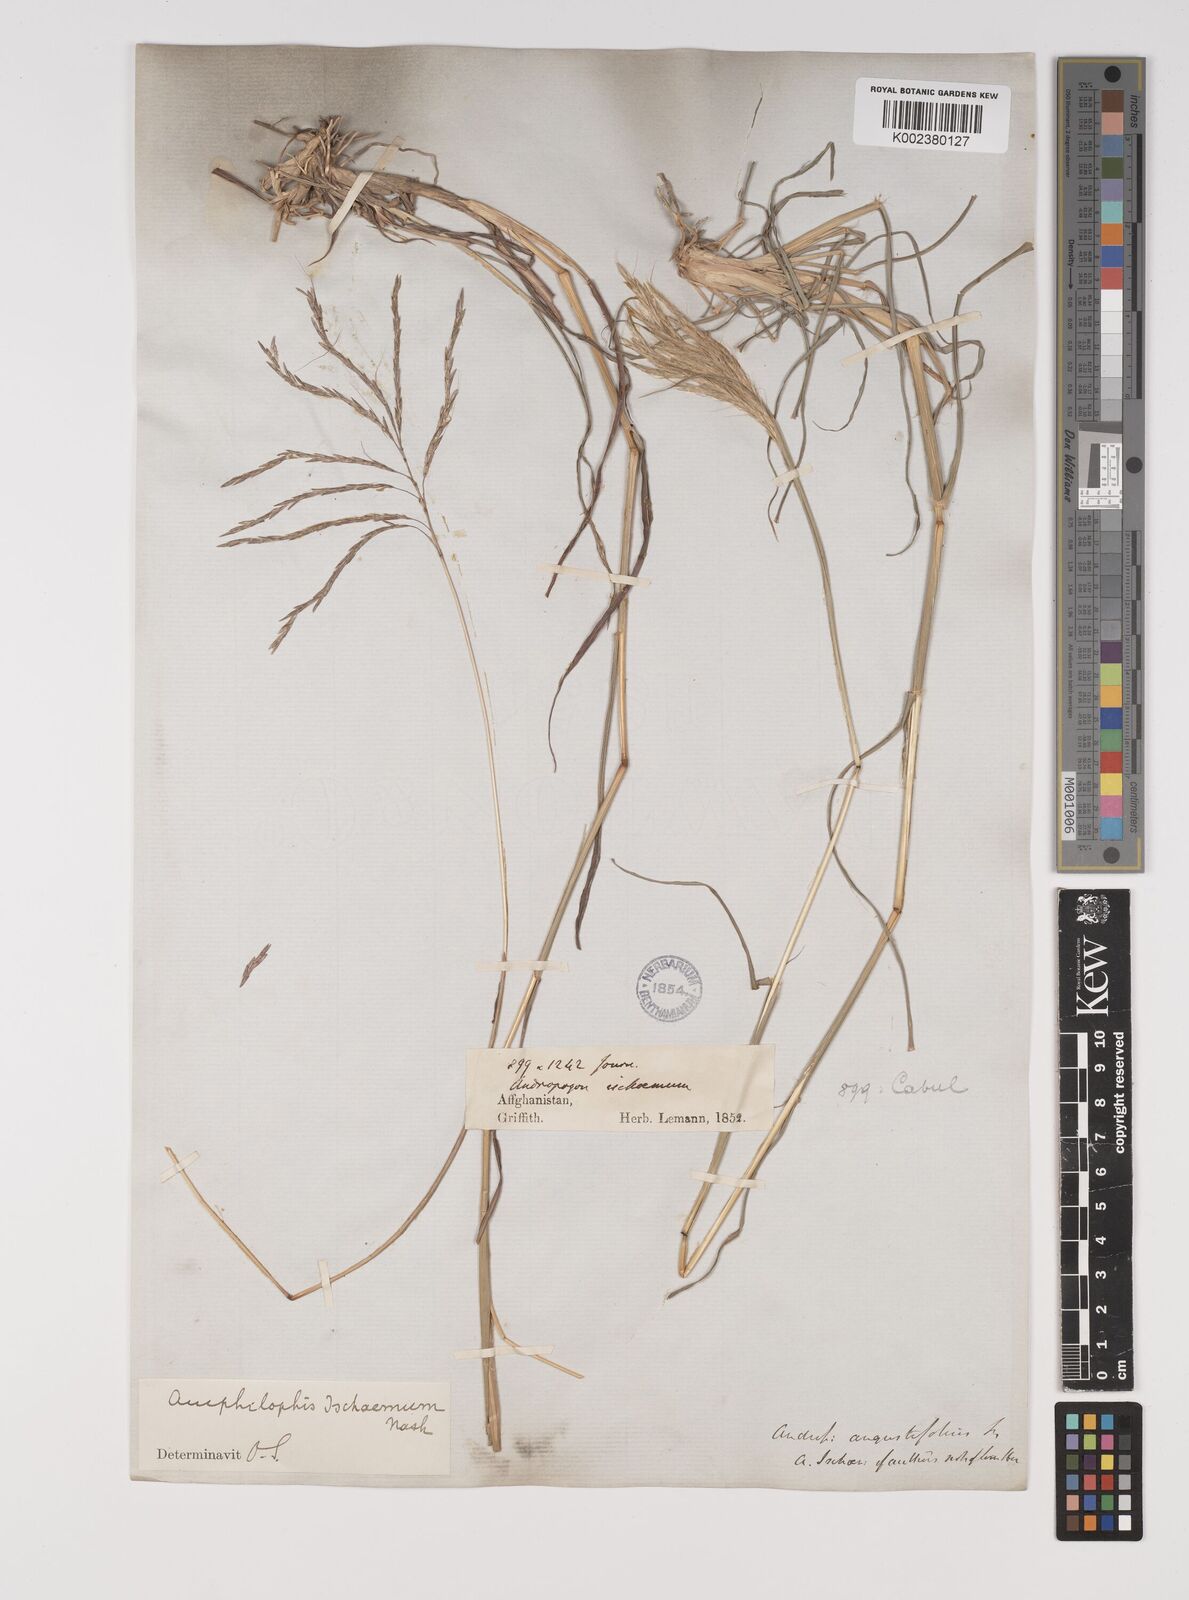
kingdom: Plantae
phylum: Tracheophyta
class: Liliopsida
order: Poales
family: Poaceae
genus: Bothriochloa
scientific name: Bothriochloa ischaemum
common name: Yellow bluestem
